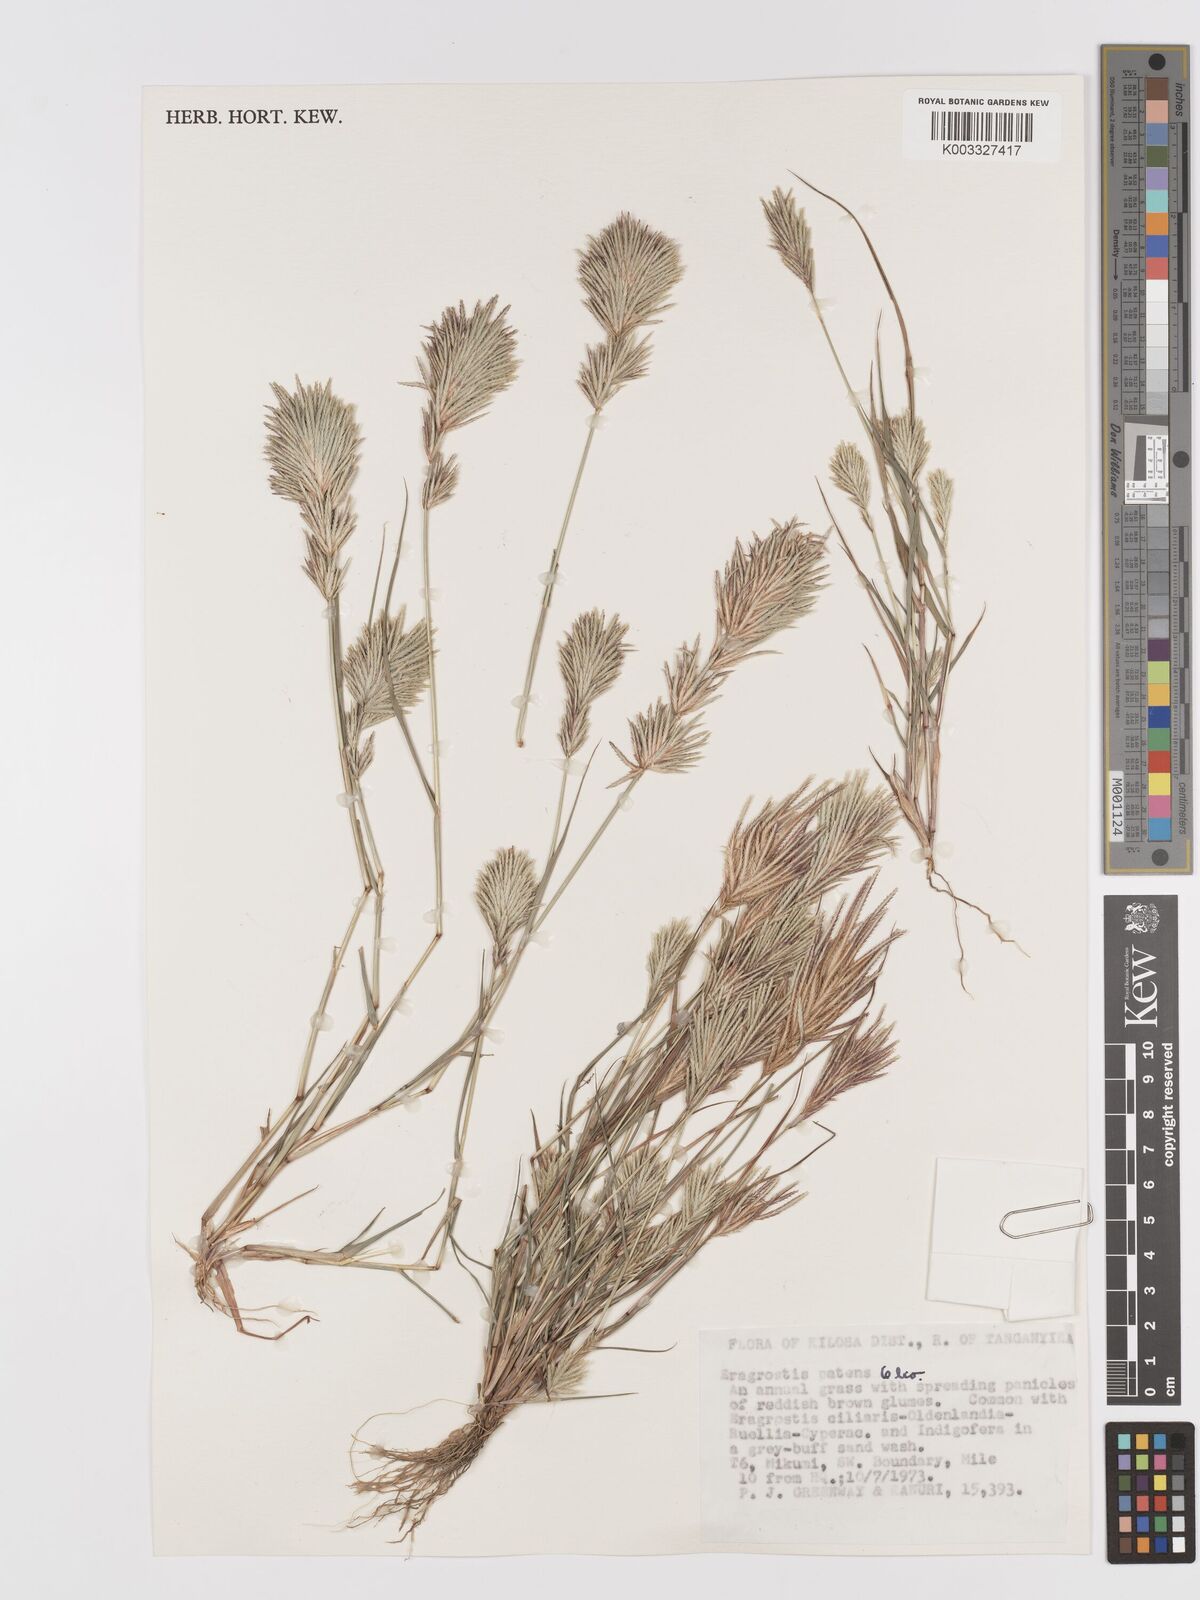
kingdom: Plantae
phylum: Tracheophyta
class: Liliopsida
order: Poales
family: Poaceae
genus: Eragrostis
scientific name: Eragrostis patens
